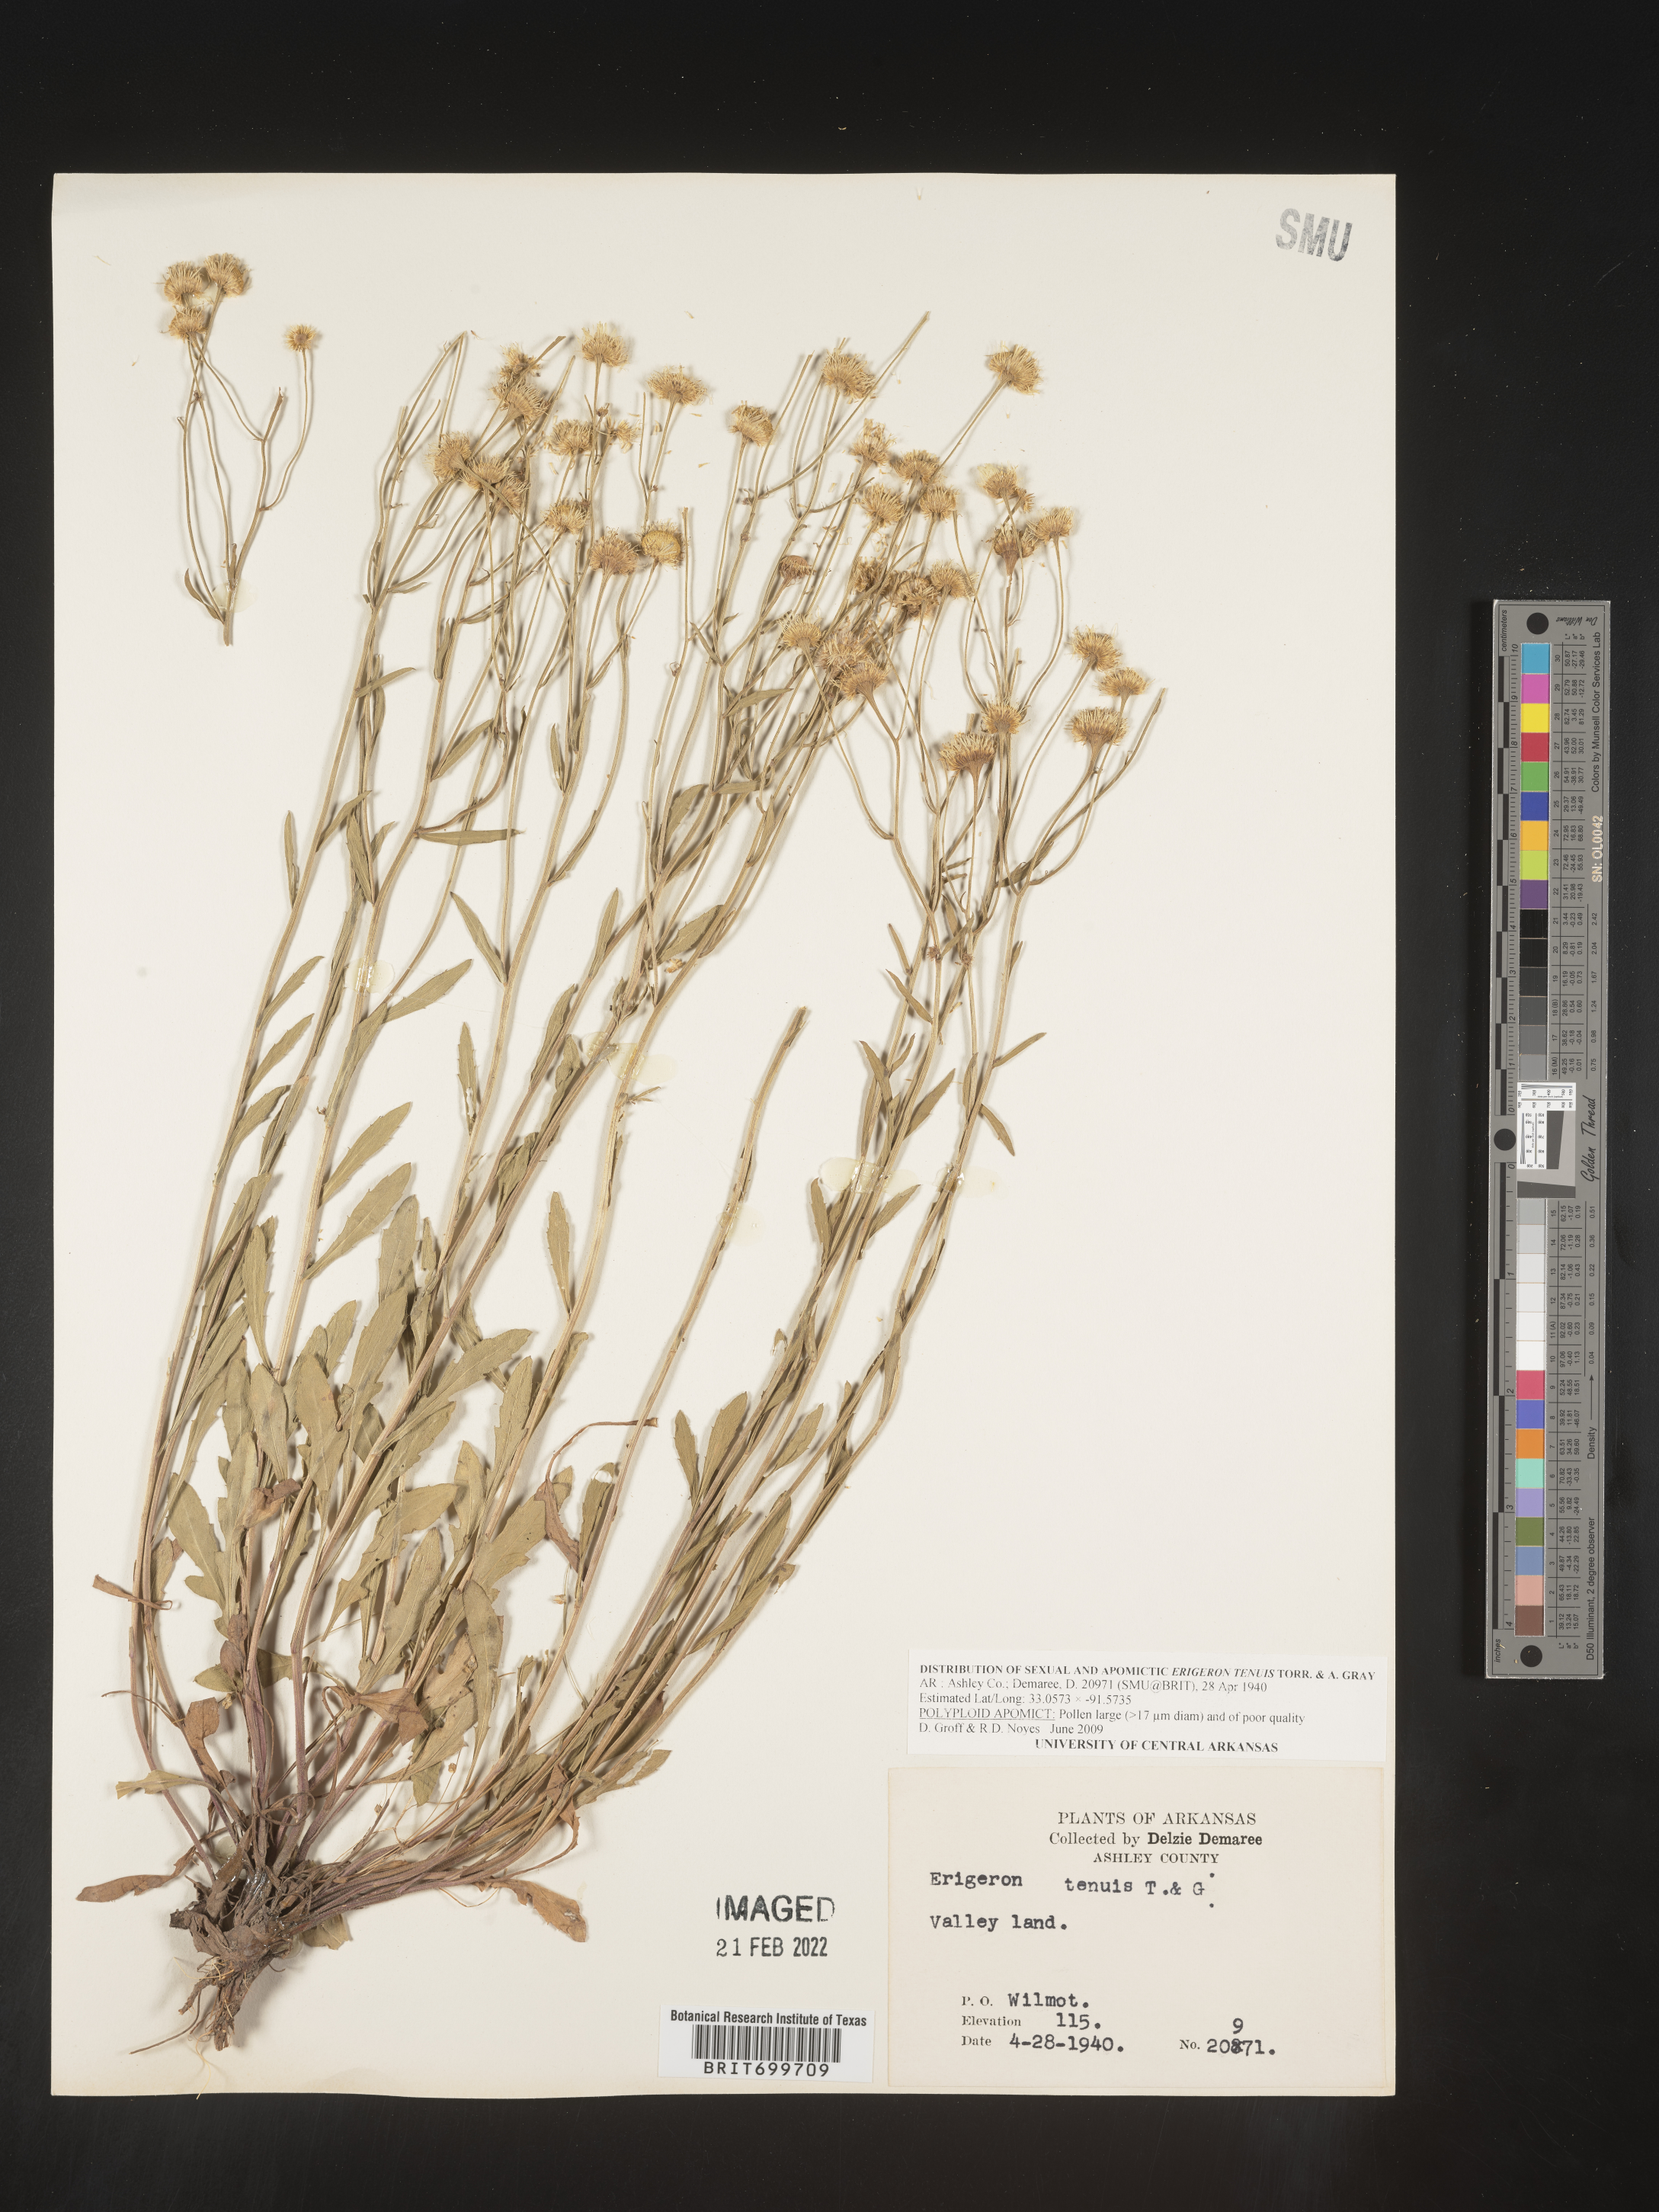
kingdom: Plantae
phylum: Tracheophyta
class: Magnoliopsida
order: Asterales
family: Asteraceae
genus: Erigeron
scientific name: Erigeron tenuis
